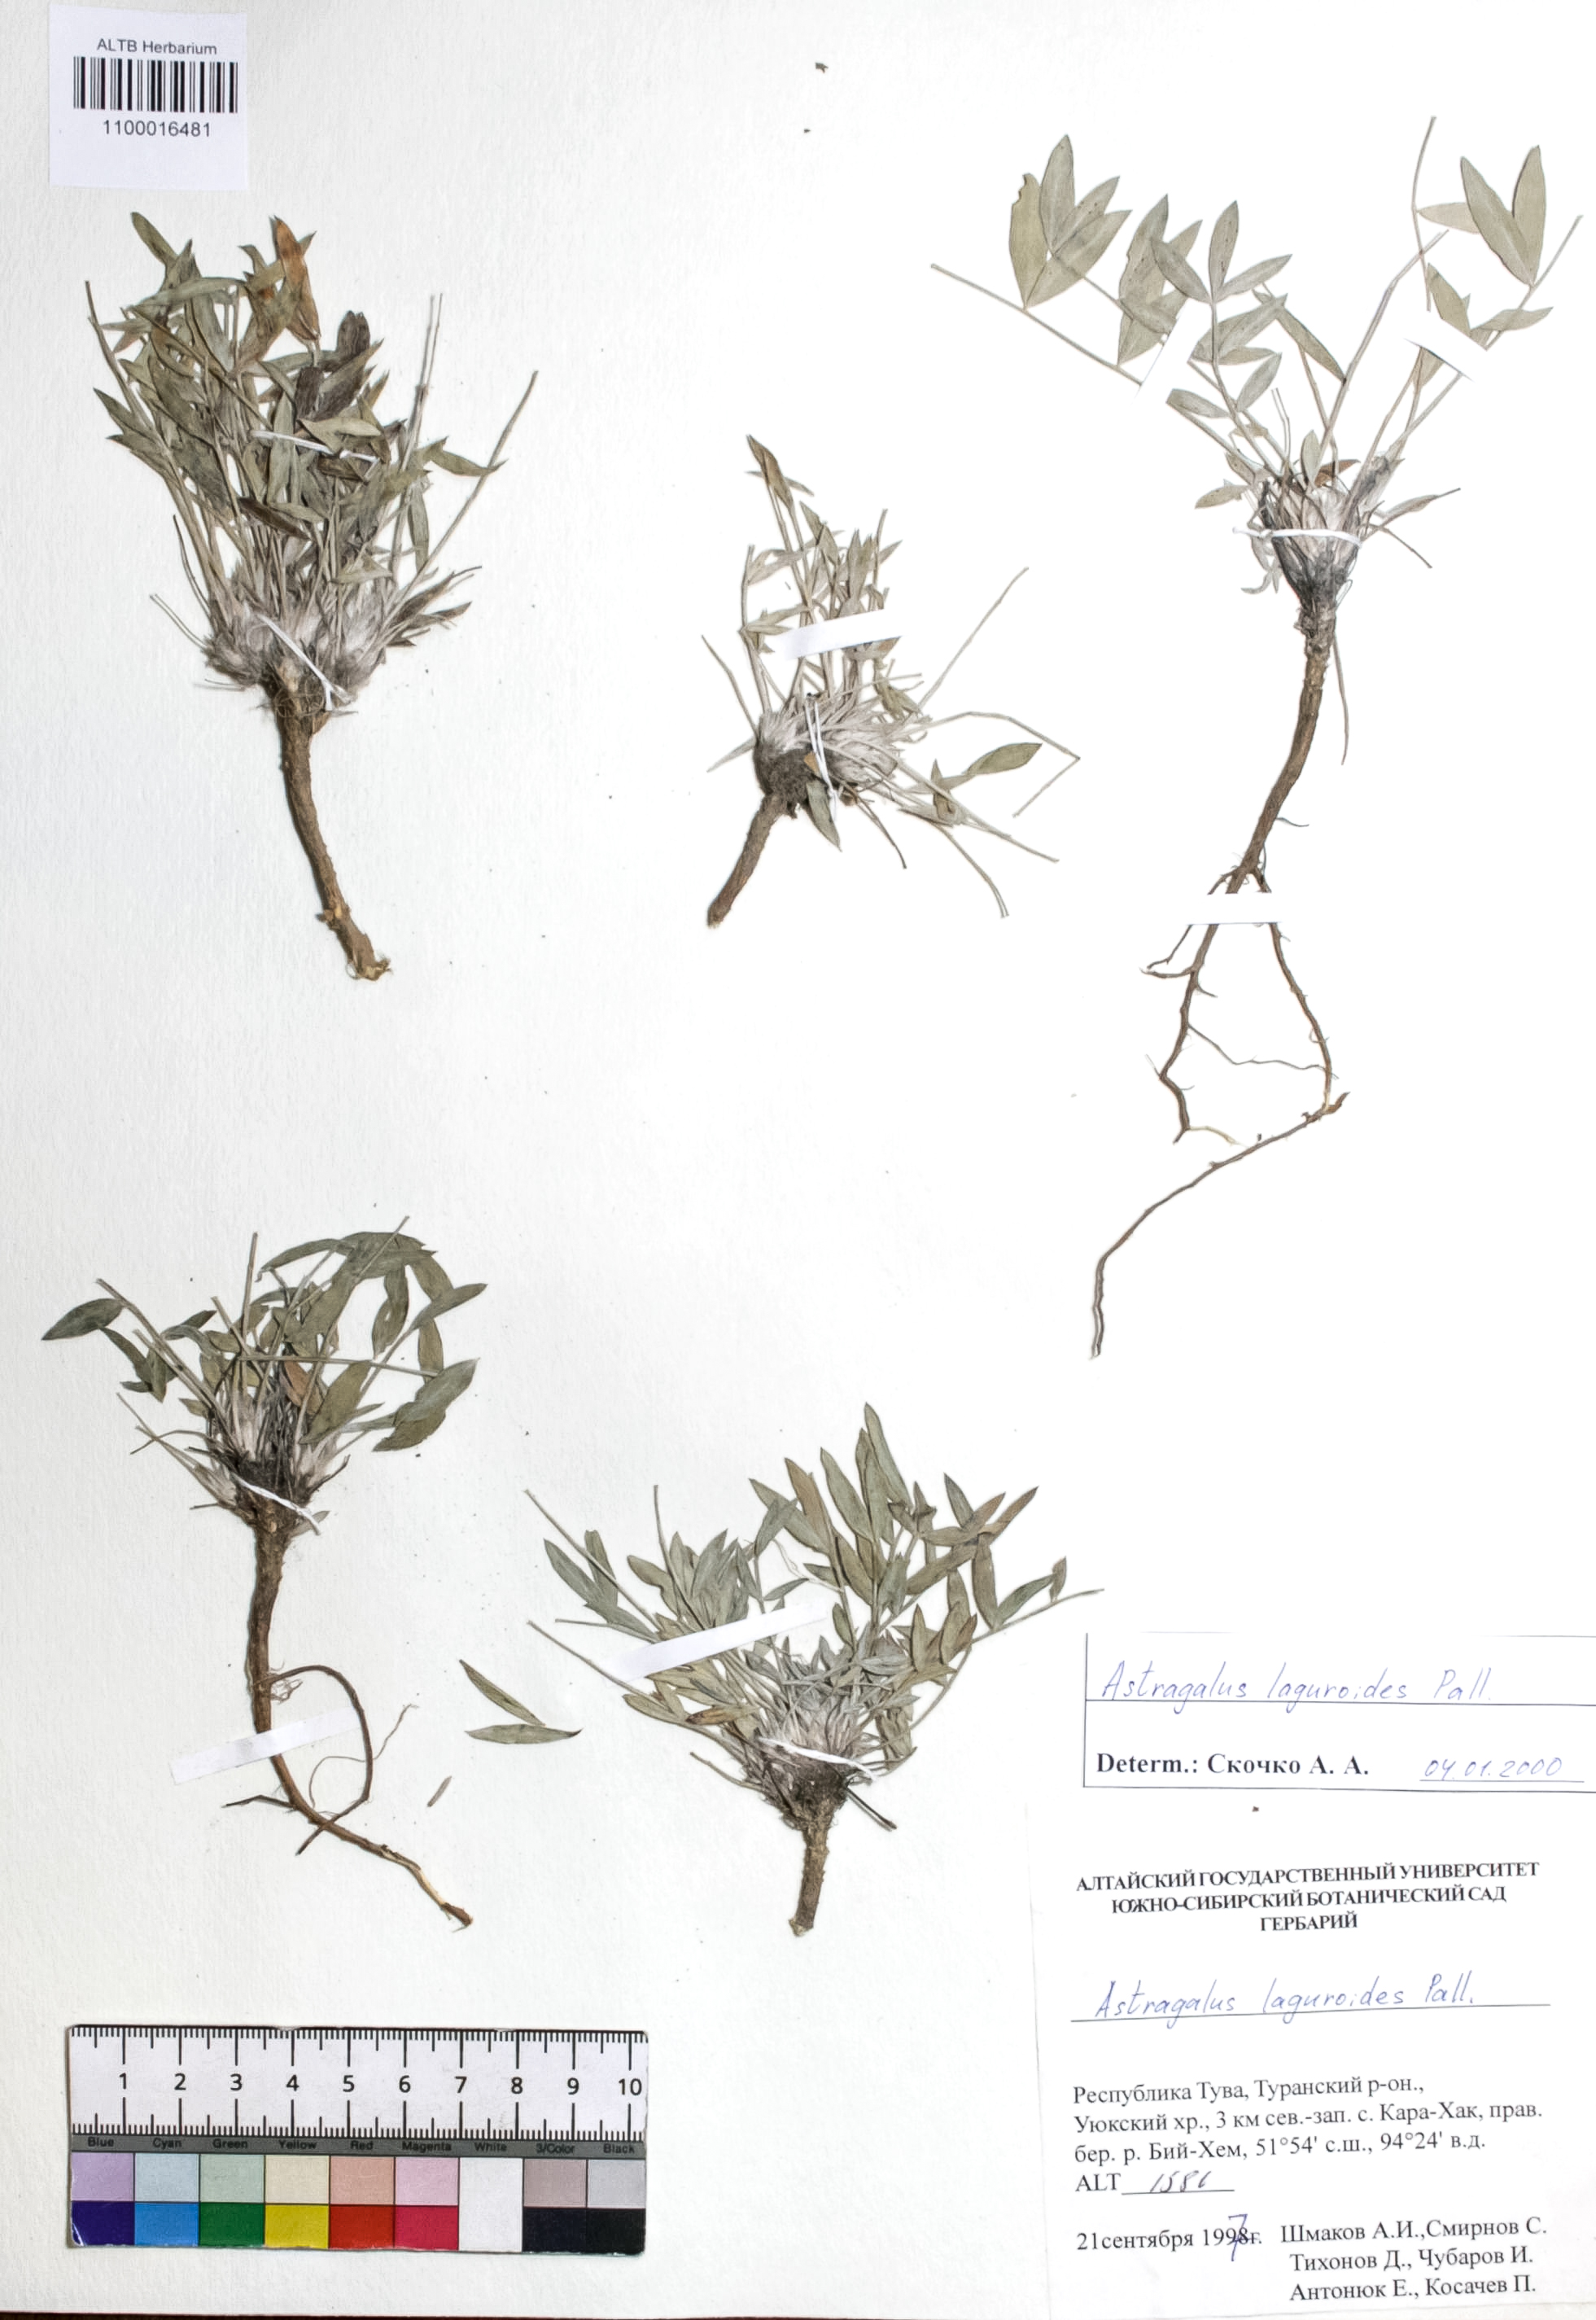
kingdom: Plantae
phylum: Tracheophyta
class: Magnoliopsida
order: Fabales
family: Fabaceae
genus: Astragalus
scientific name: Astragalus laguroides
